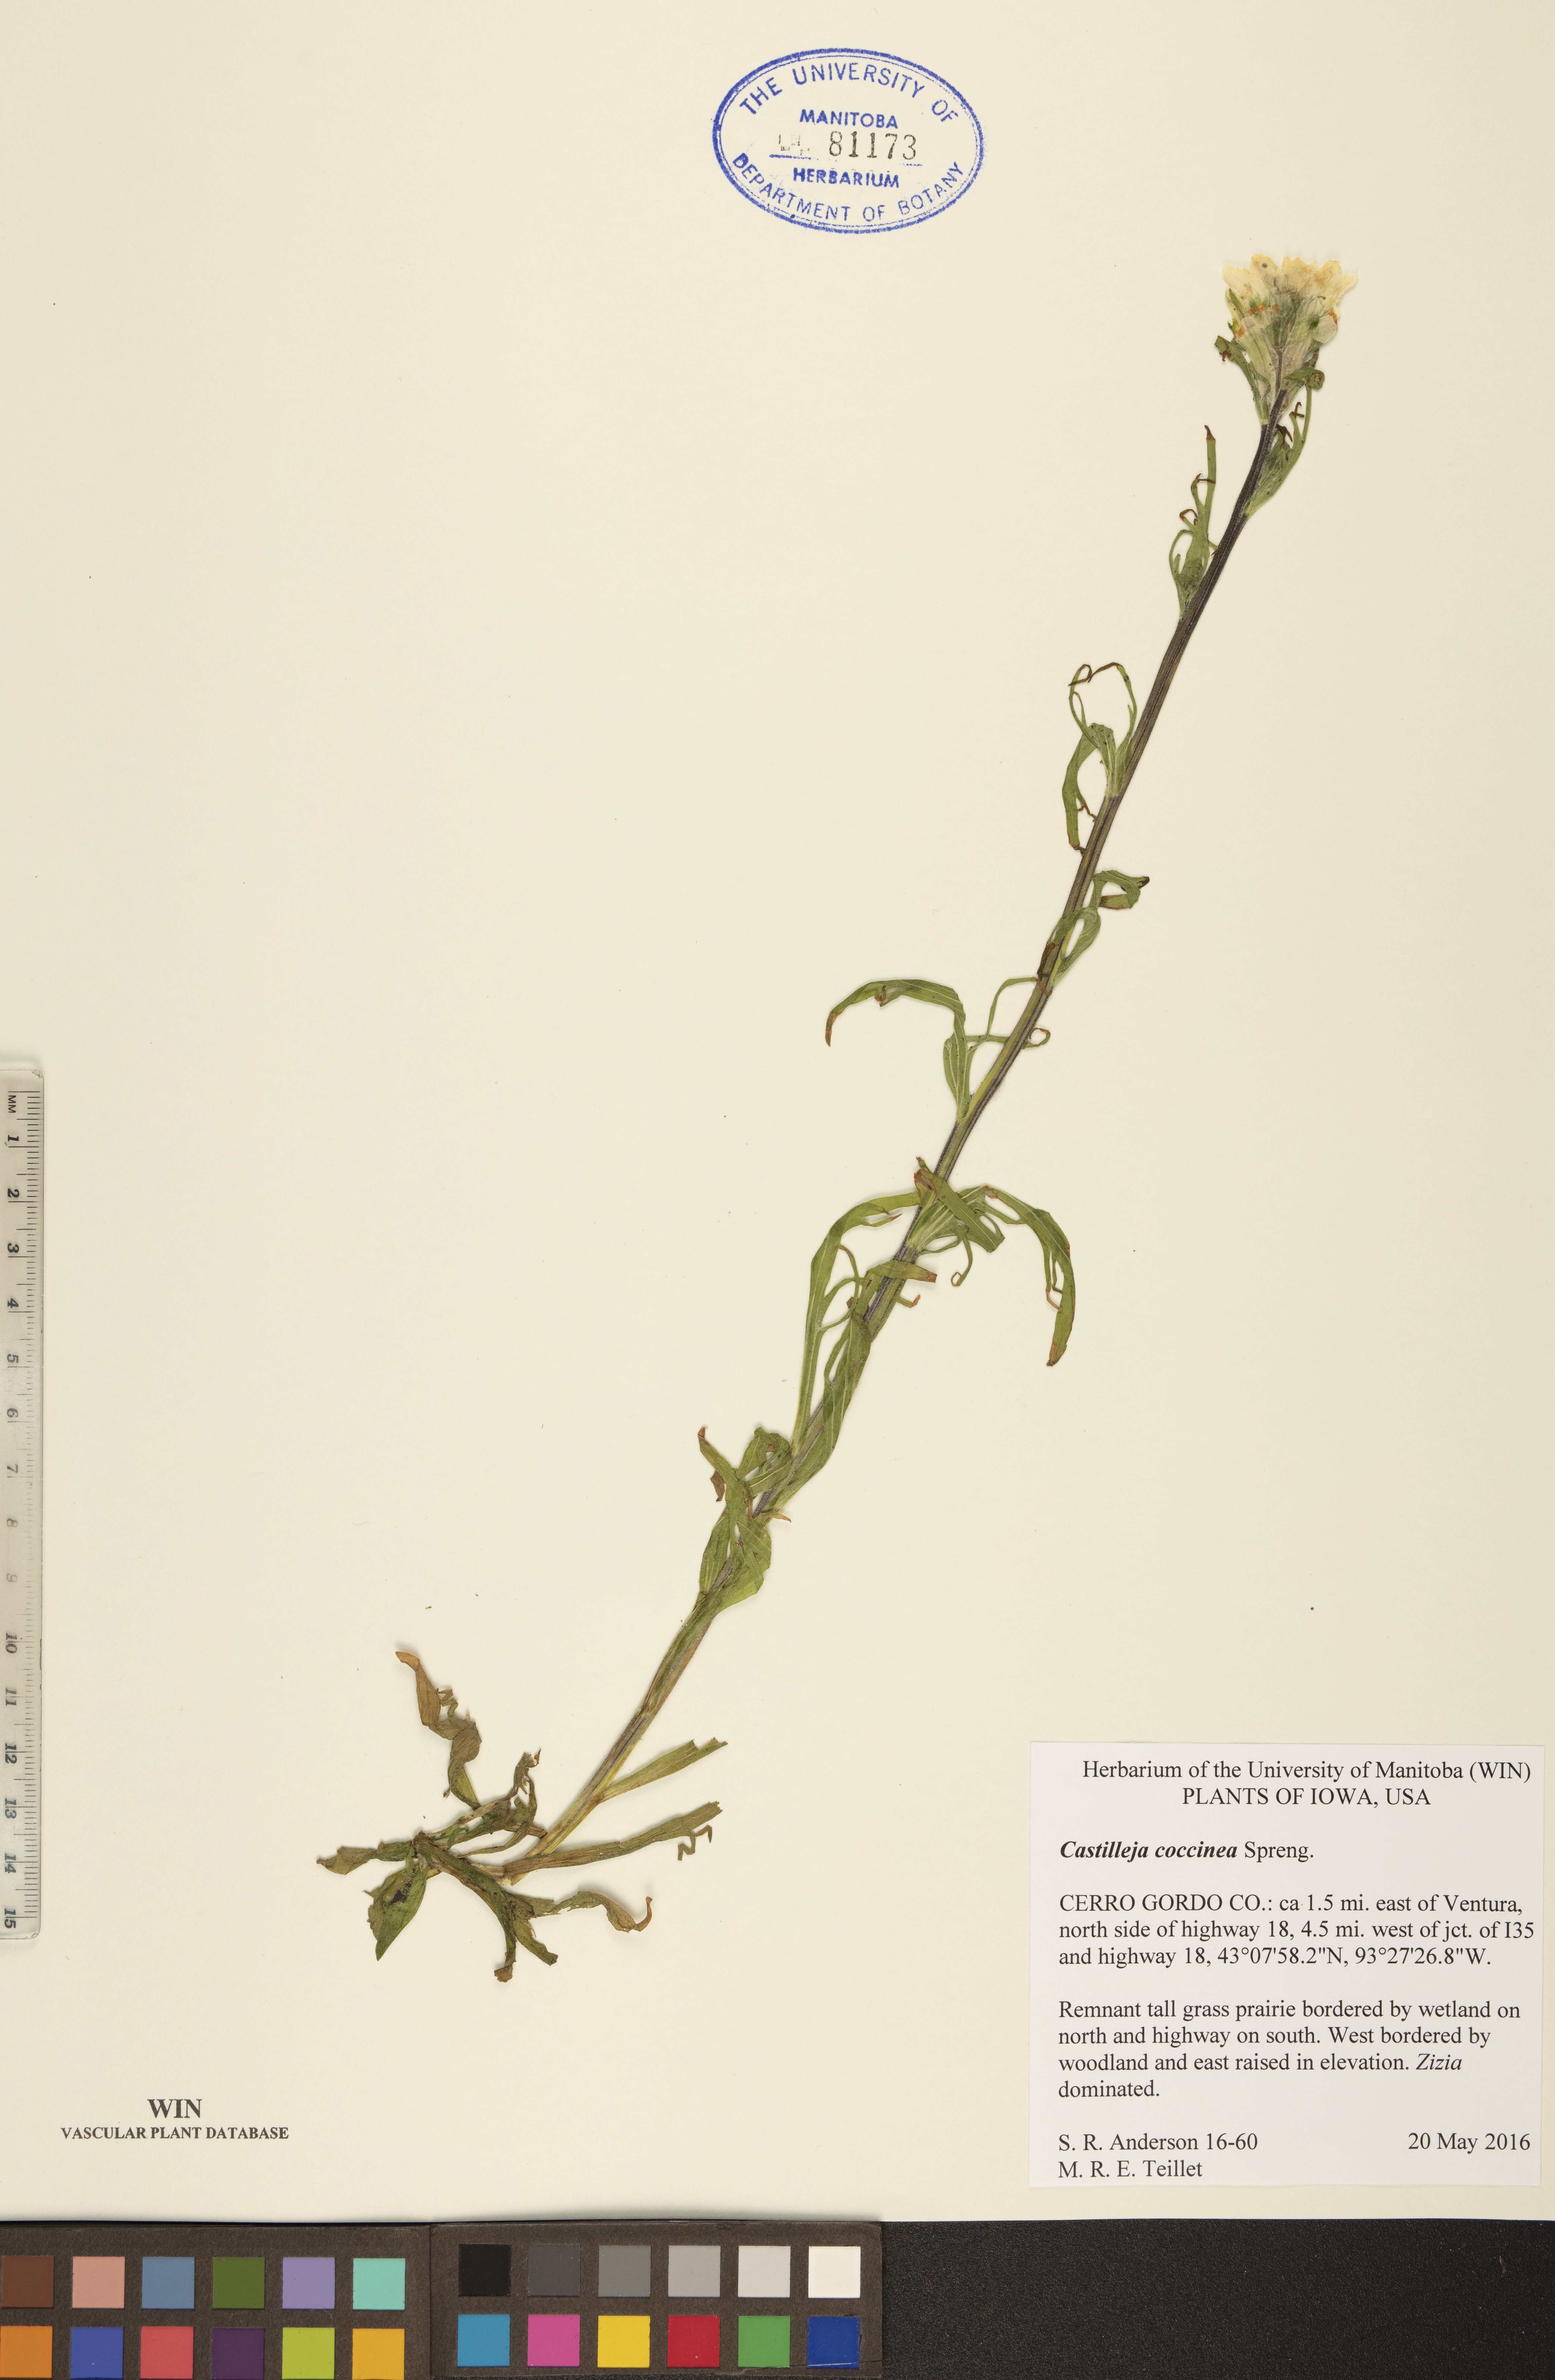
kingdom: Plantae
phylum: Tracheophyta
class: Magnoliopsida
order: Lamiales
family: Orobanchaceae
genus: Castilleja
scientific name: Castilleja coccinea
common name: Scarlet paintbrush
